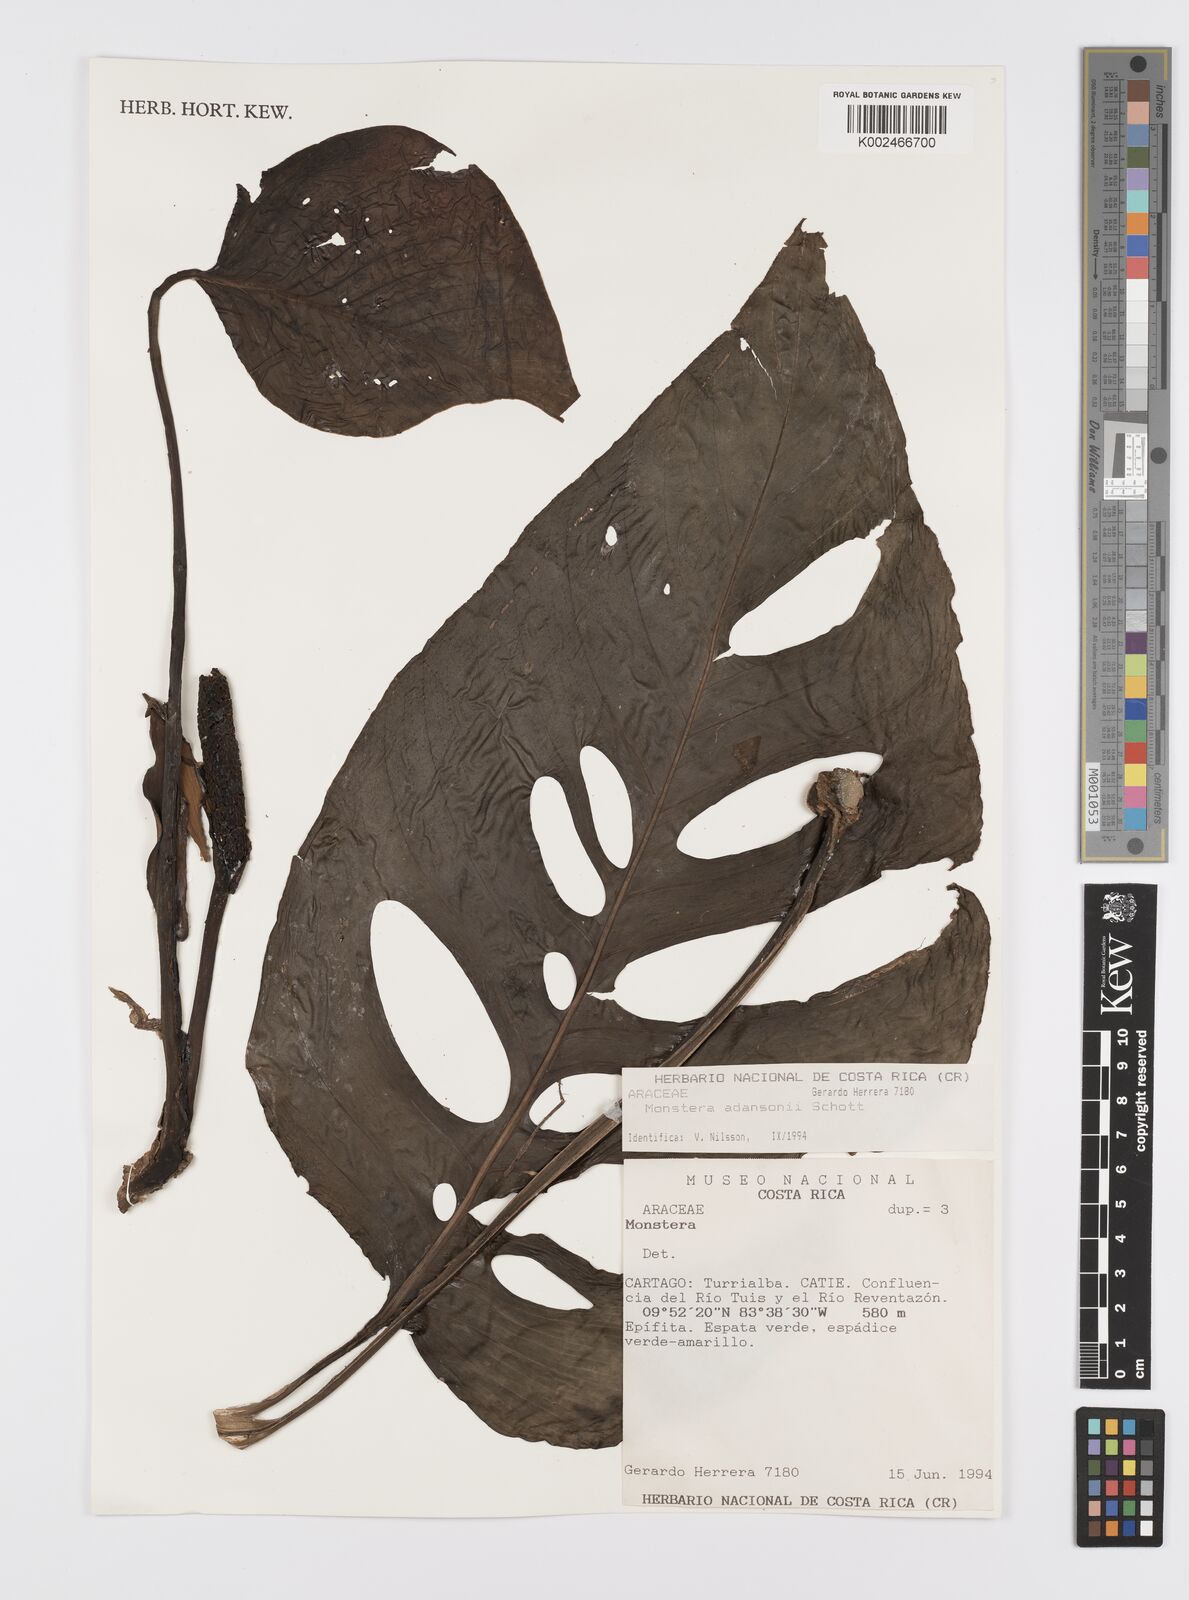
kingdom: Plantae
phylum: Tracheophyta
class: Liliopsida
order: Alismatales
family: Araceae
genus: Monstera
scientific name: Monstera adansonii
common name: Tarovine
